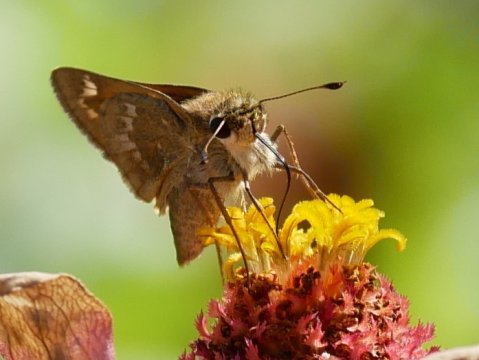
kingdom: Animalia
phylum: Arthropoda
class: Insecta
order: Lepidoptera
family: Hesperiidae
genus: Atalopedes
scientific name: Atalopedes campestris
